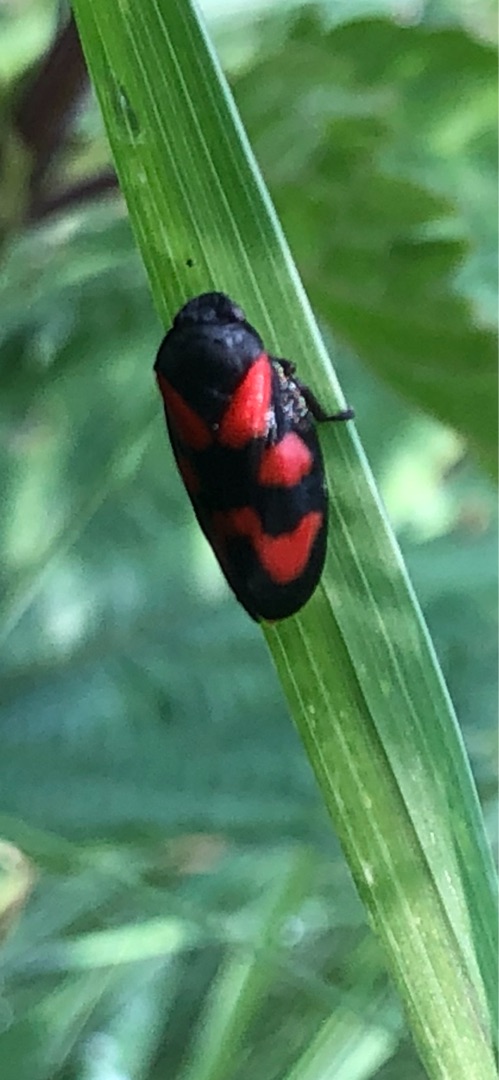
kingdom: Animalia
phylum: Arthropoda
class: Insecta
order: Hemiptera
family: Cercopidae
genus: Cercopis
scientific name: Cercopis vulnerata
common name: Blodcikade
